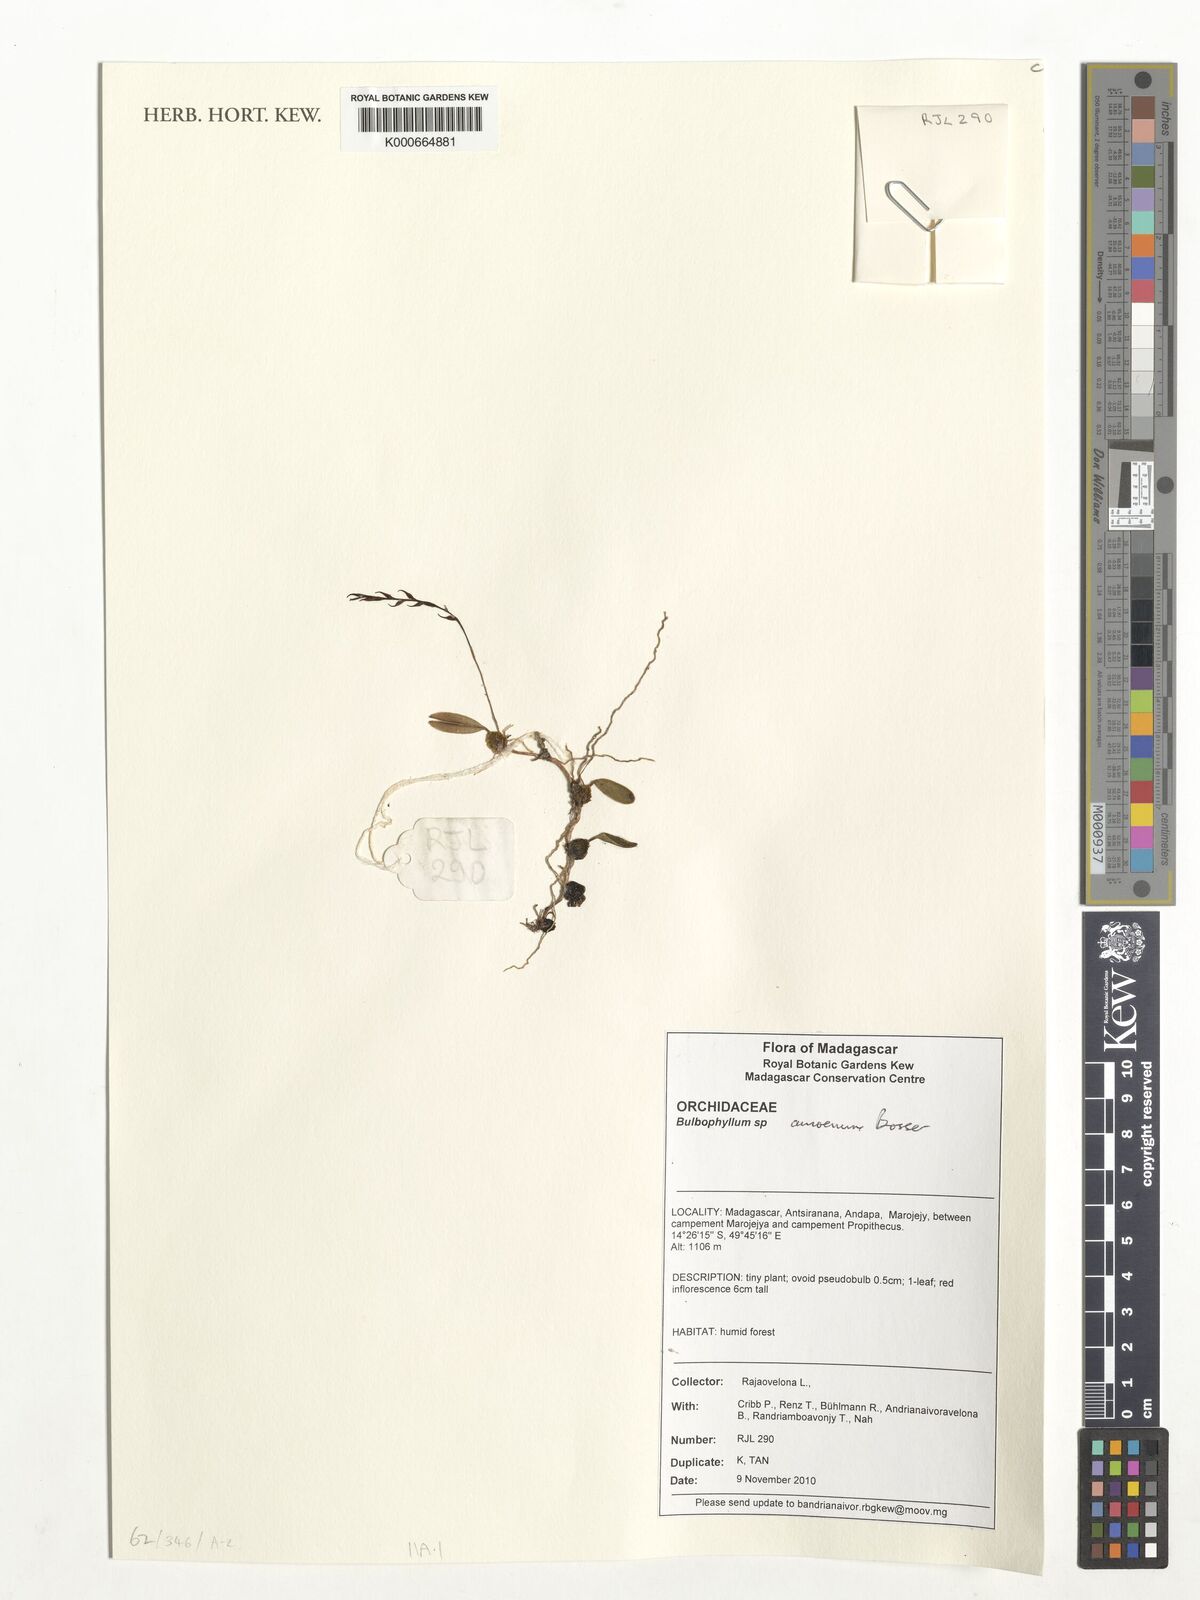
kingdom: Plantae
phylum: Tracheophyta
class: Liliopsida
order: Asparagales
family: Orchidaceae
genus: Bulbophyllum
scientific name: Bulbophyllum amoenum
